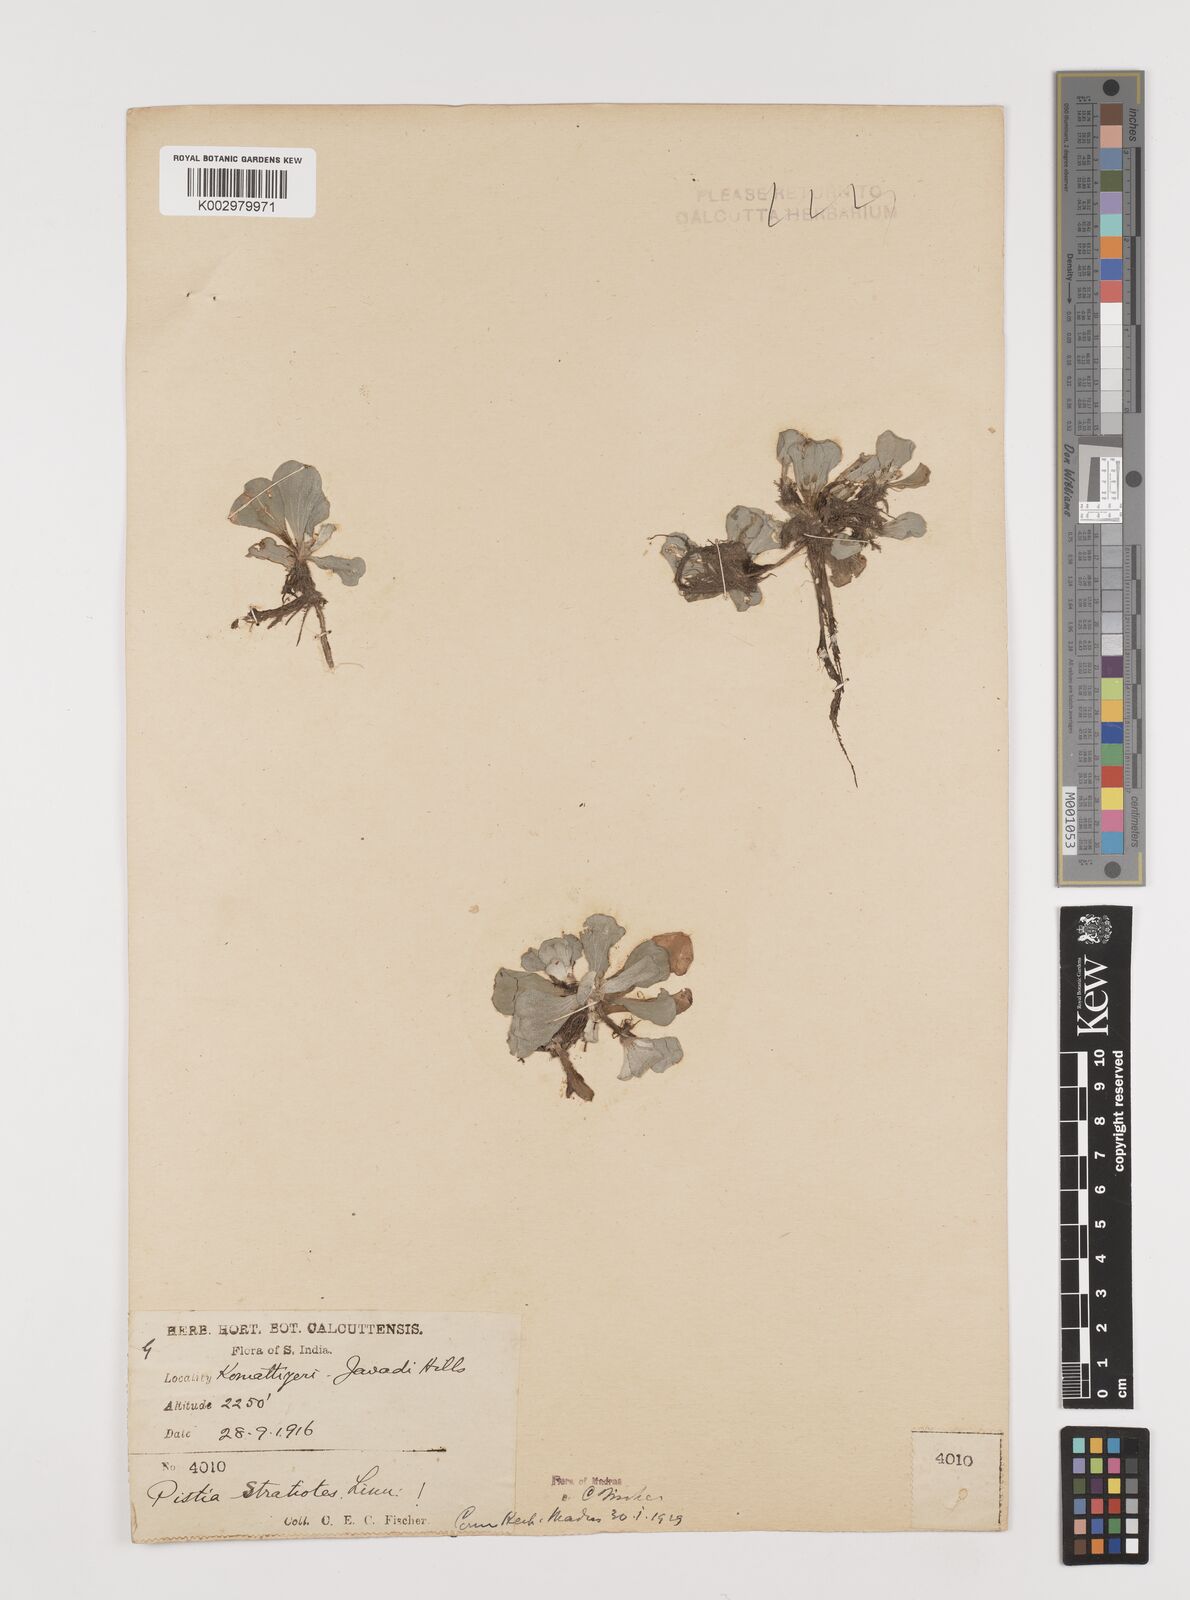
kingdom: Plantae
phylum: Tracheophyta
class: Liliopsida
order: Alismatales
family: Araceae
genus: Pistia
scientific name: Pistia stratiotes
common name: Water lettuce
